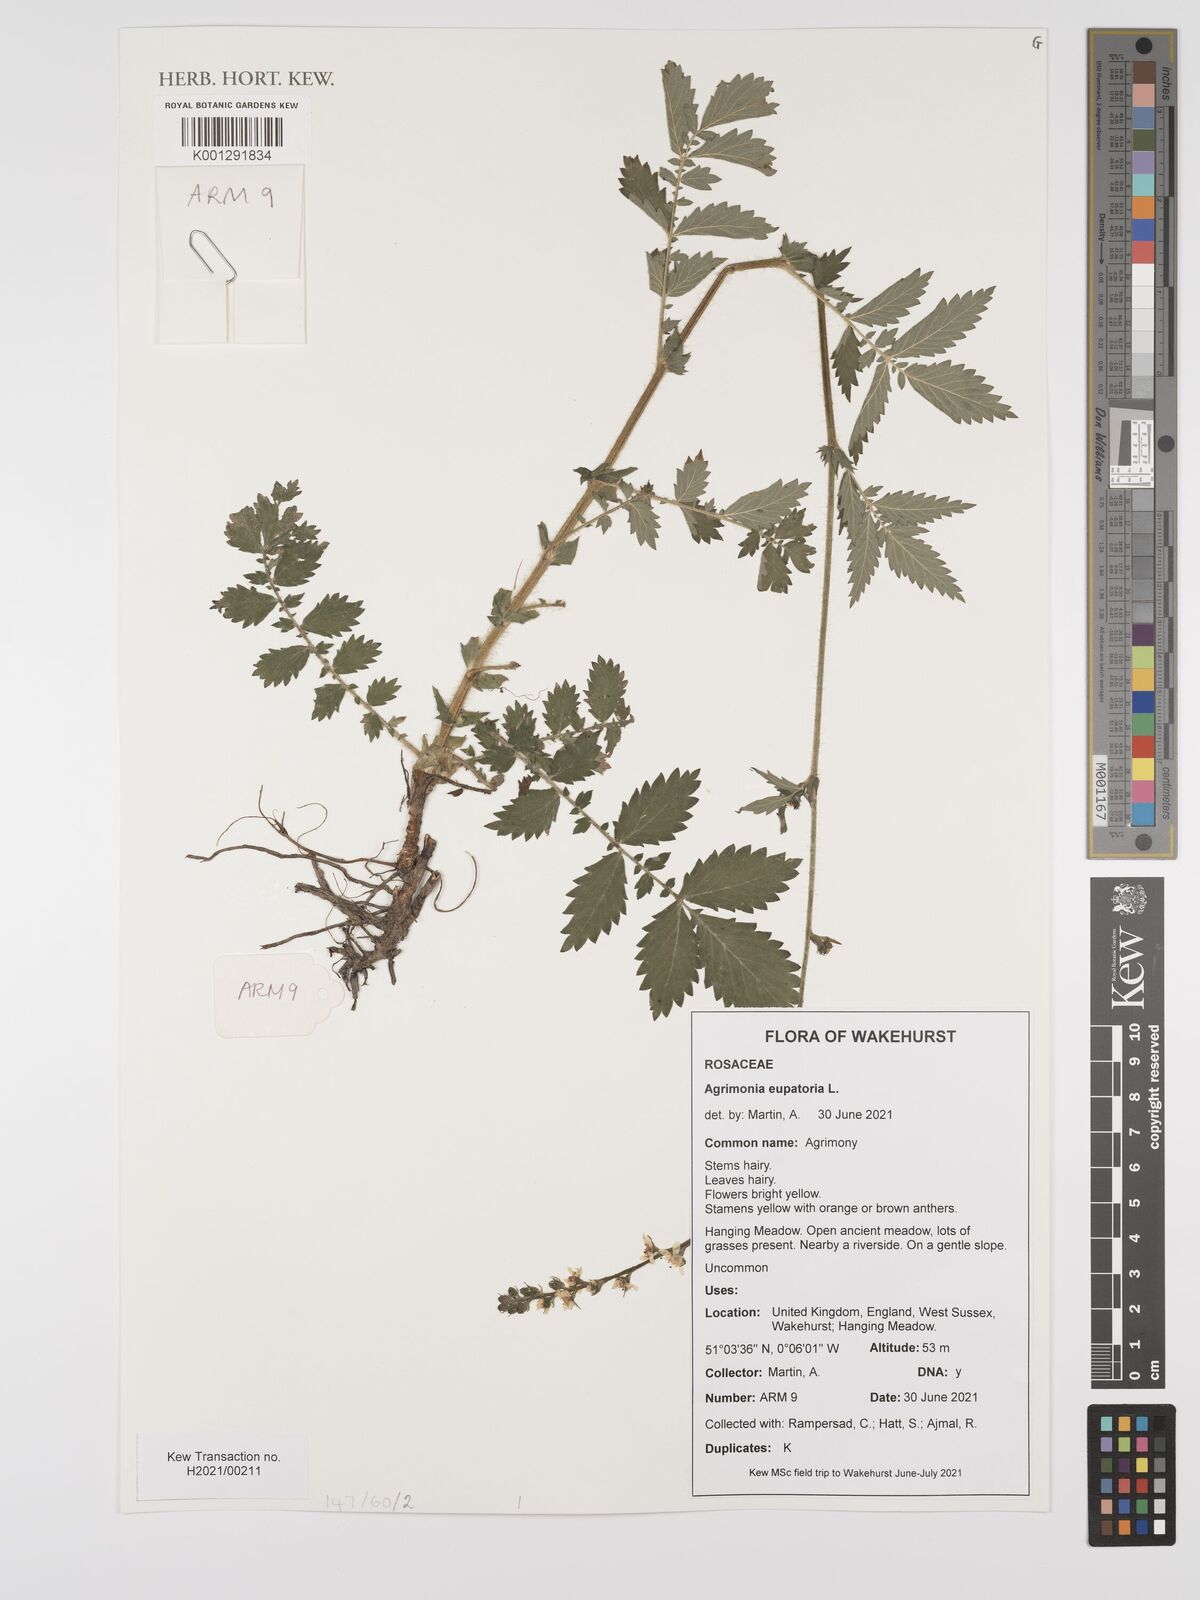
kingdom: Plantae
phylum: Tracheophyta
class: Magnoliopsida
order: Rosales
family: Rosaceae
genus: Agrimonia
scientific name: Agrimonia eupatoria
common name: Agrimony
